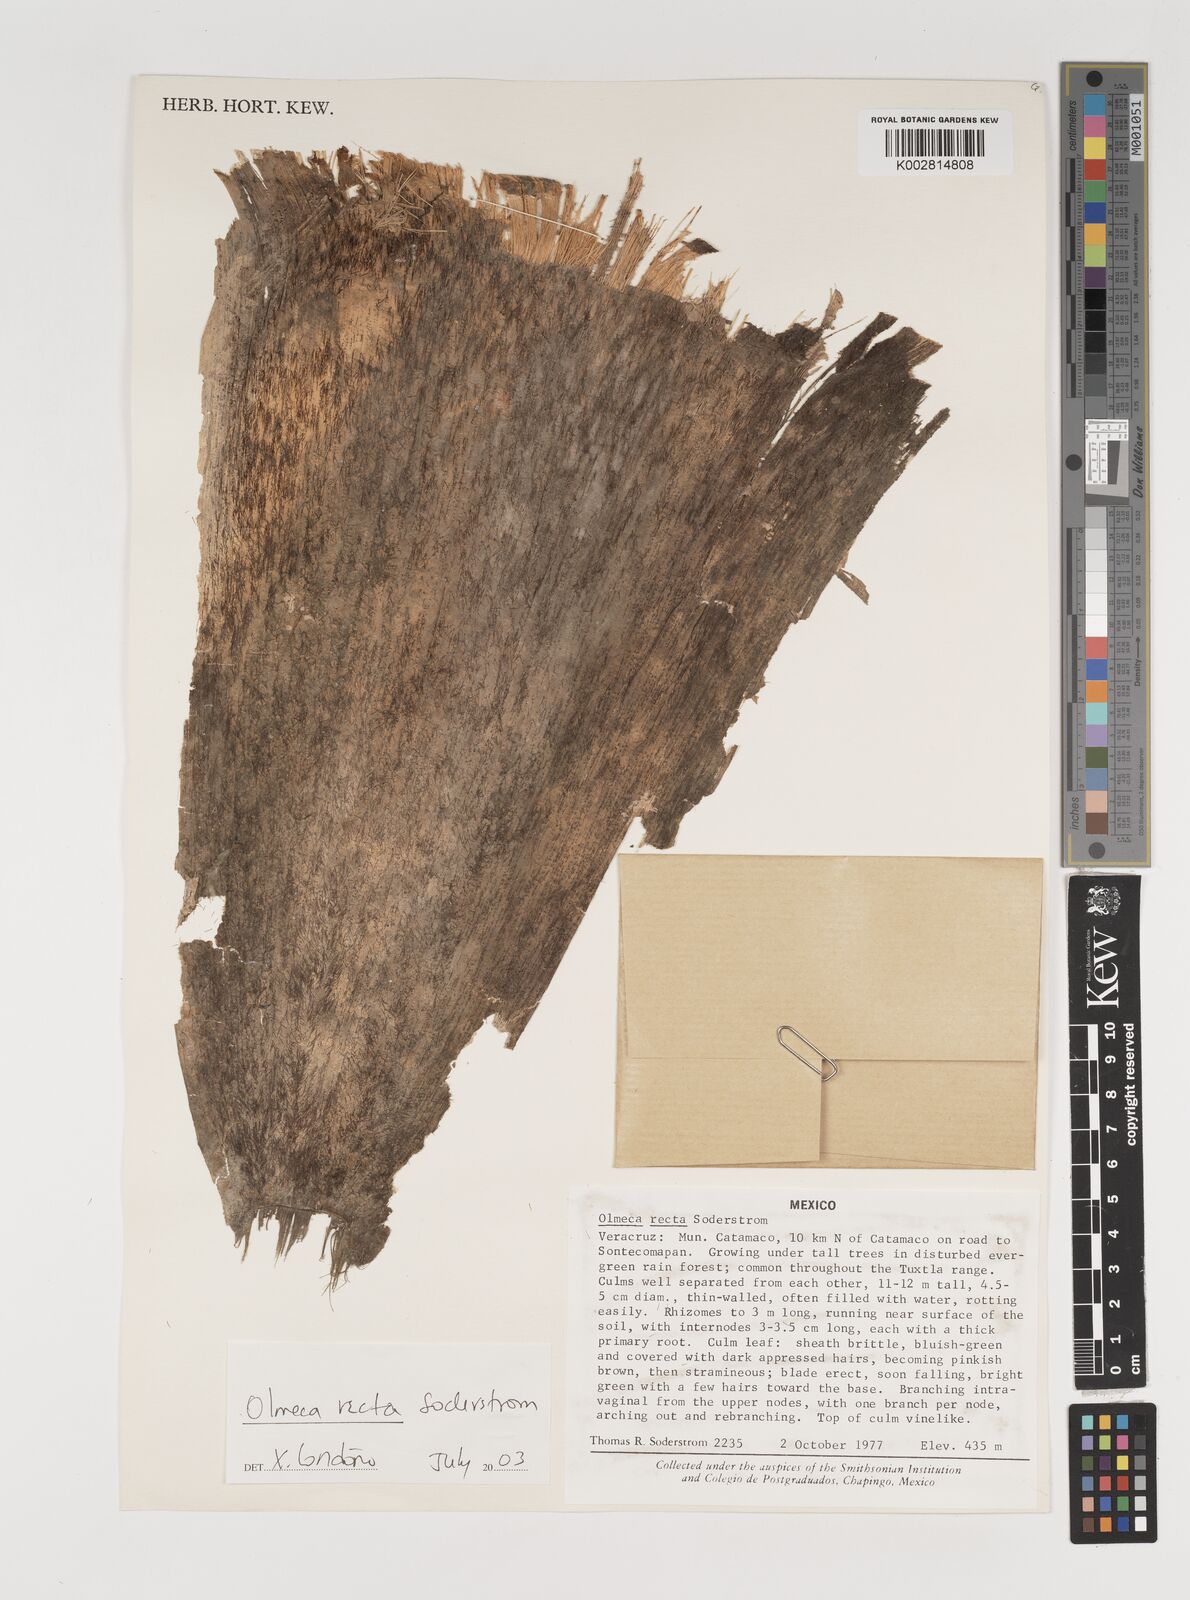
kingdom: Plantae
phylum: Tracheophyta
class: Liliopsida
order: Poales
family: Poaceae
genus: Olmeca
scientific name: Olmeca recta
